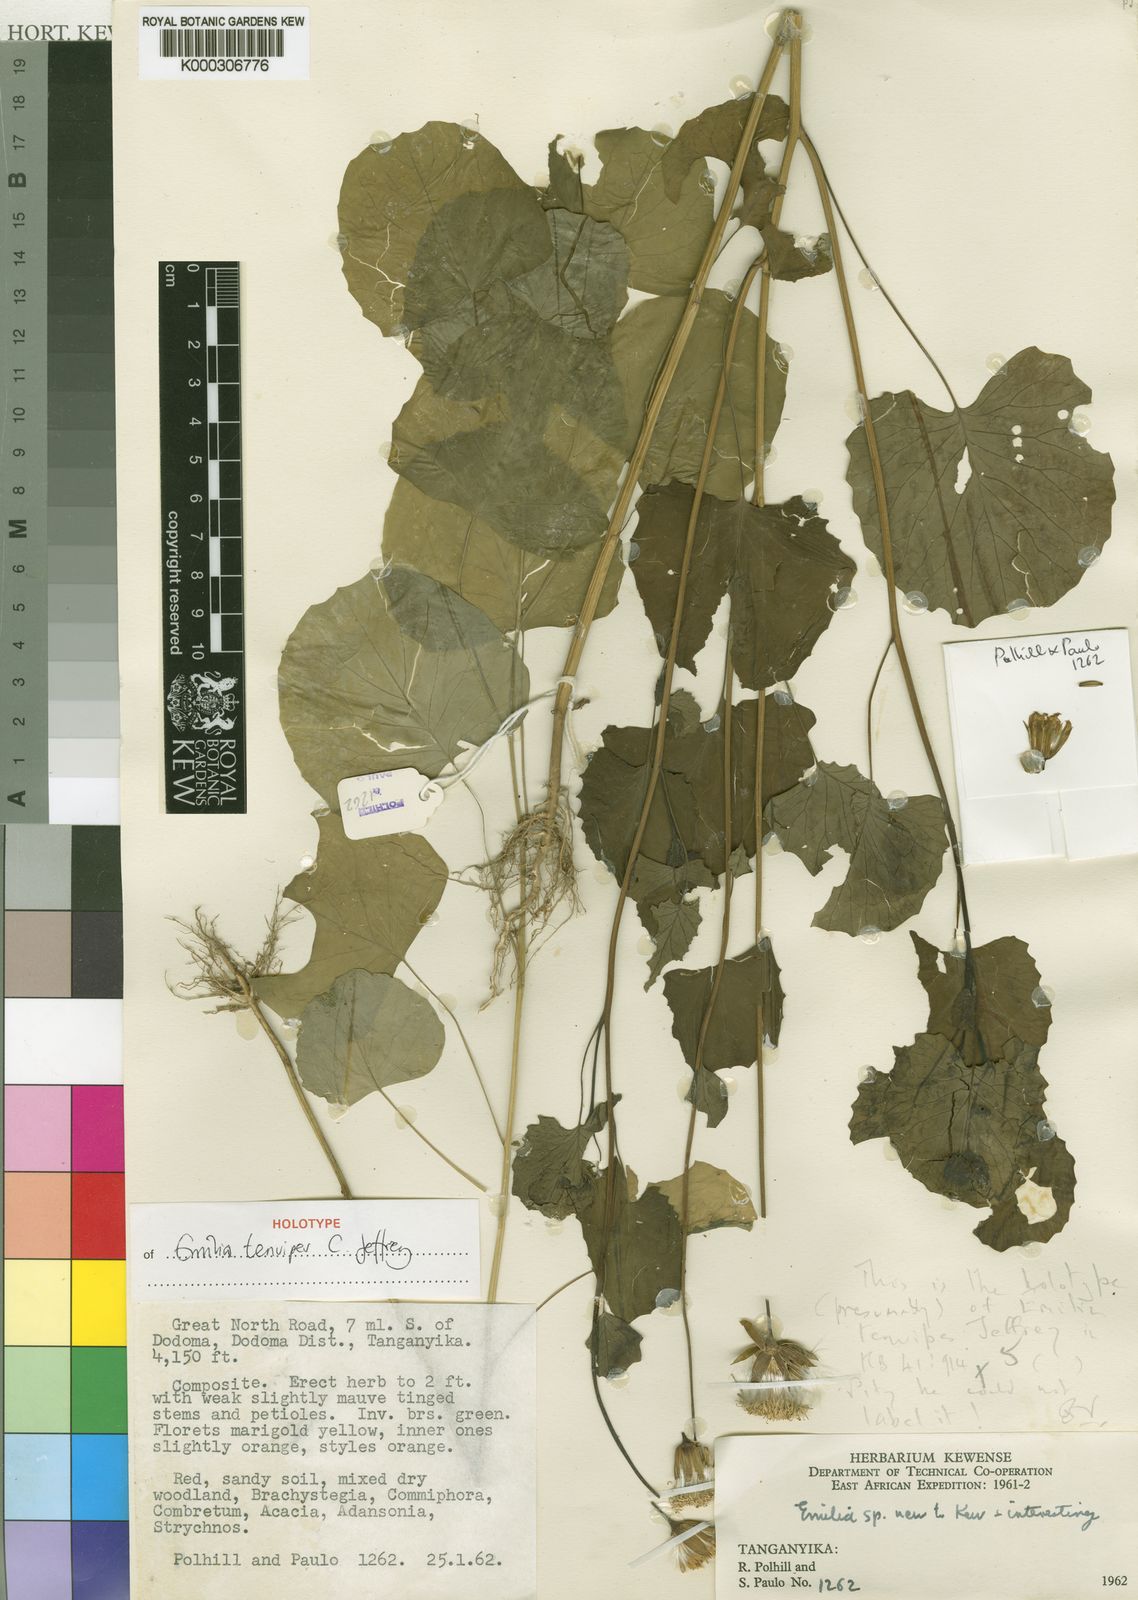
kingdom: Plantae
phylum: Tracheophyta
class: Magnoliopsida
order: Asterales
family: Asteraceae
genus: Emilia
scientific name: Emilia tenuipes
